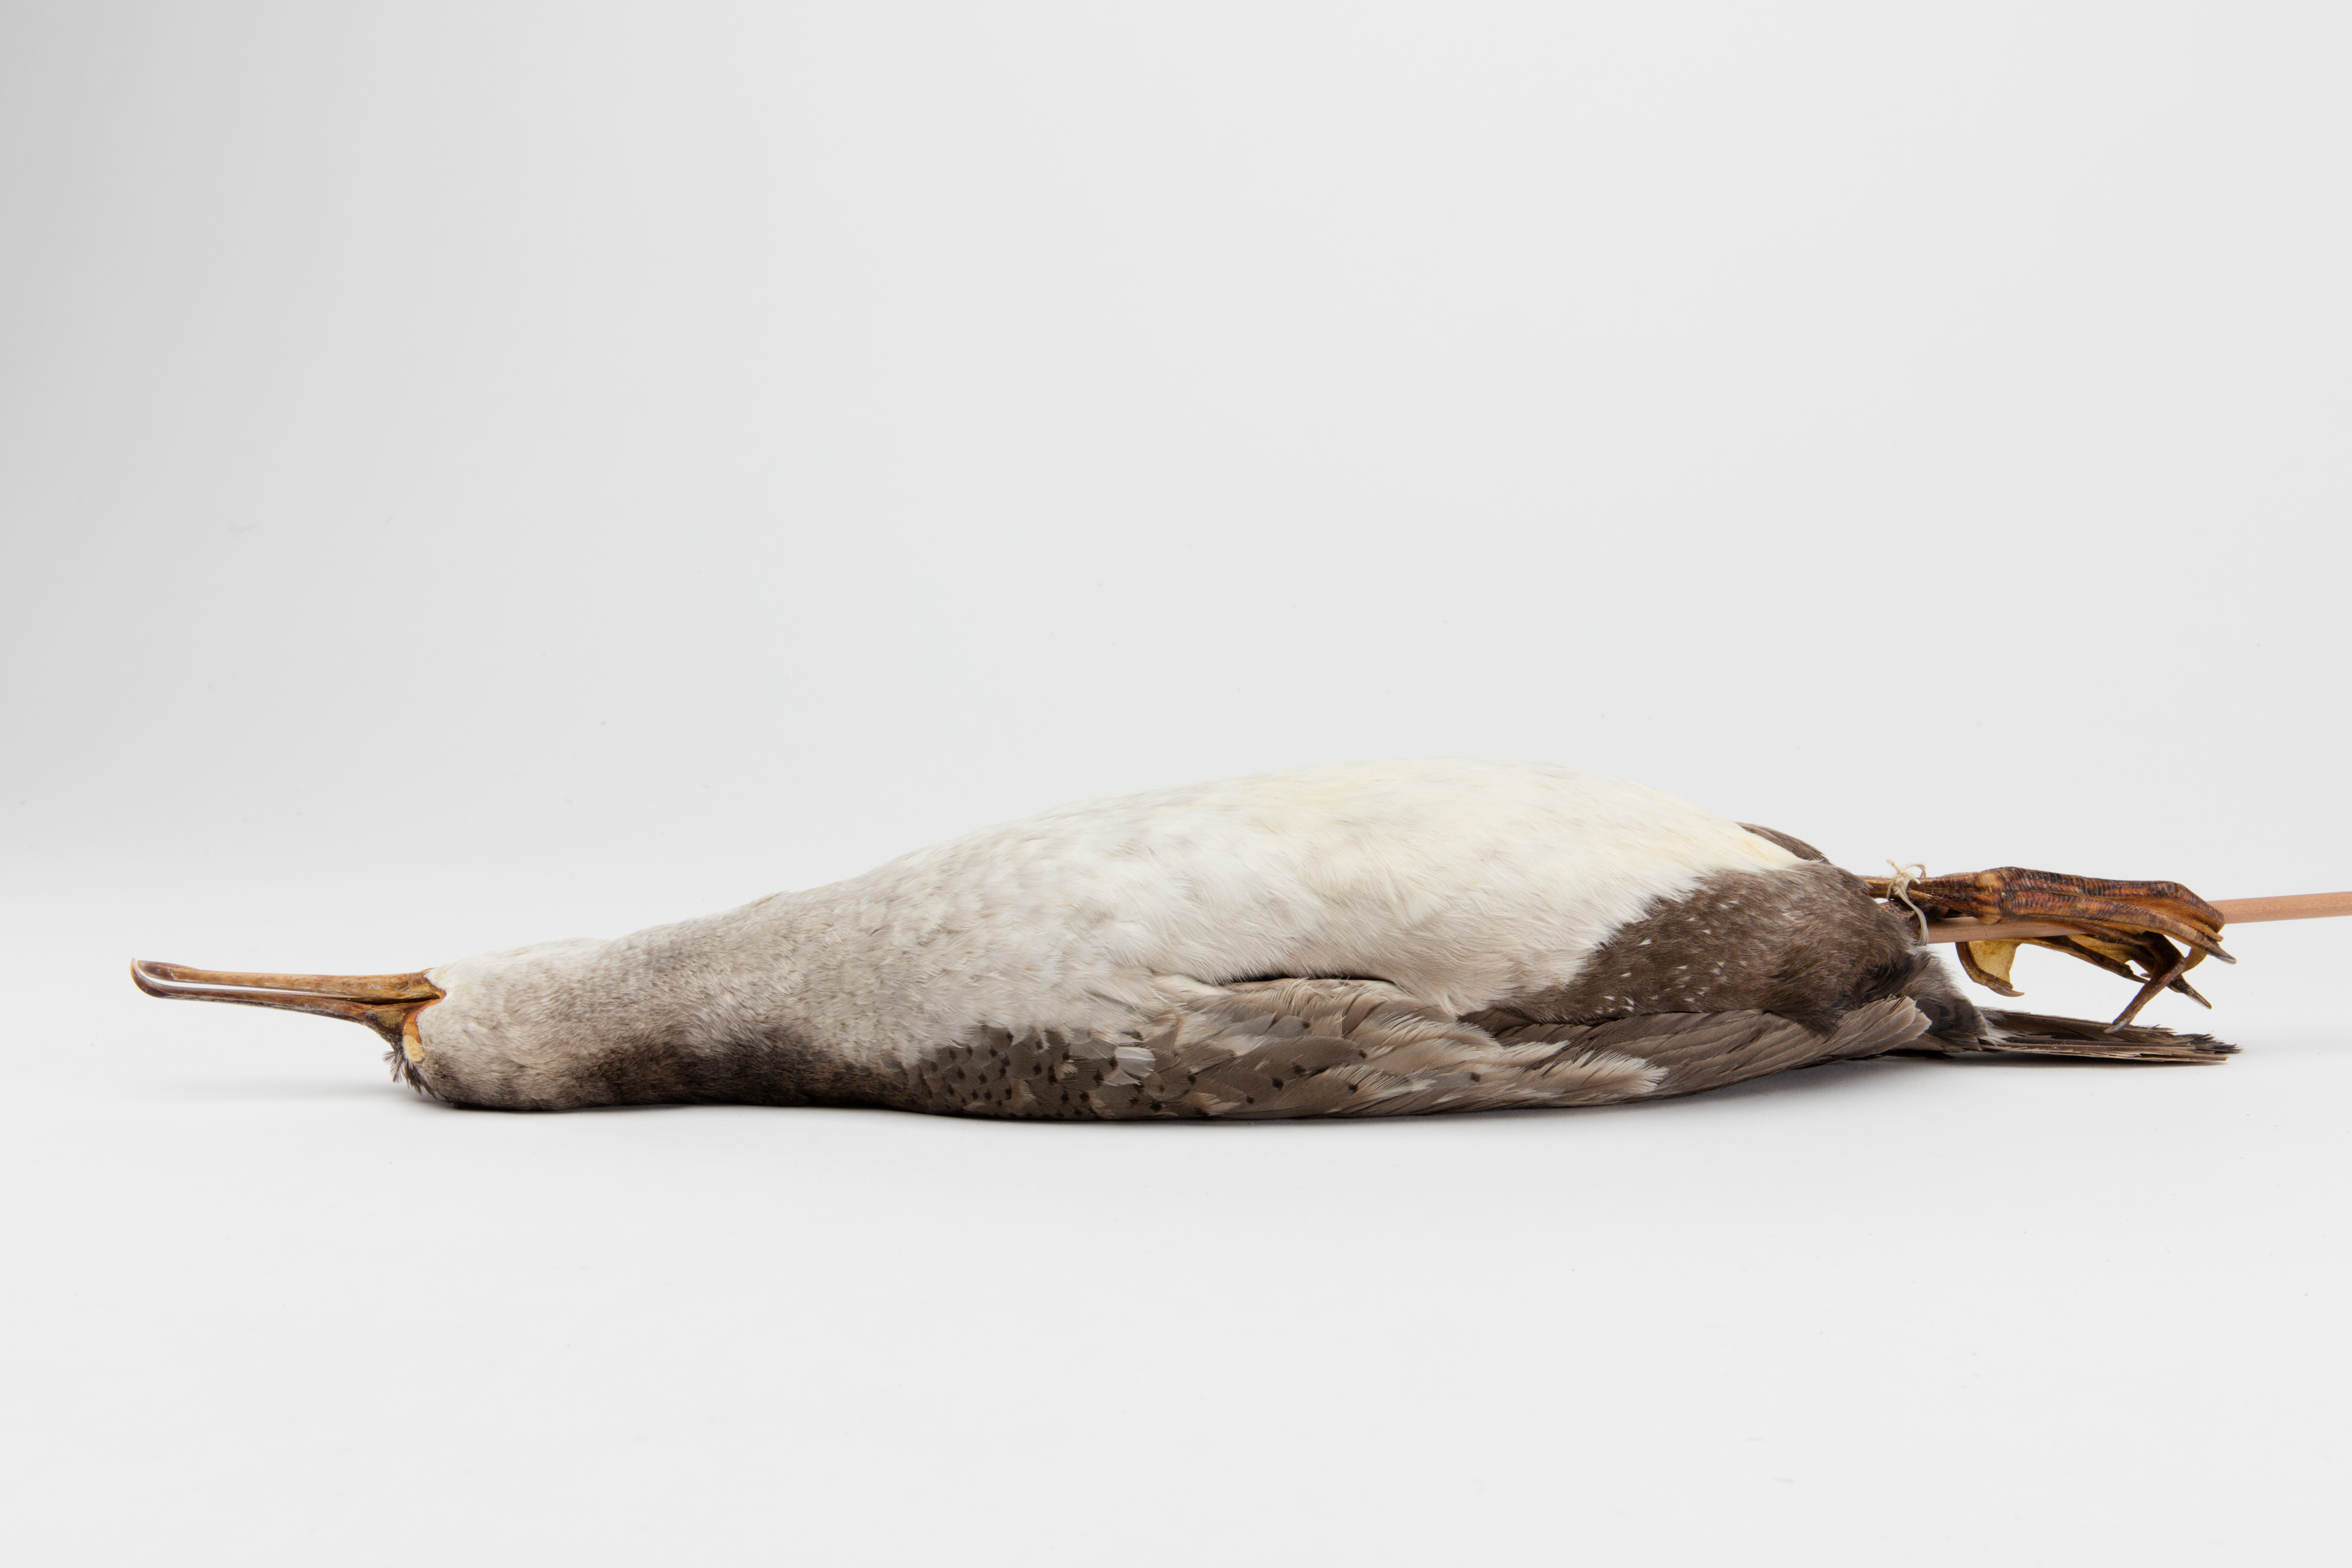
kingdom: Animalia
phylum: Chordata
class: Aves
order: Suliformes
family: Phalacrocoracidae
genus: Phalacrocorax
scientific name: Phalacrocorax punctatus
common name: Spotted shag
